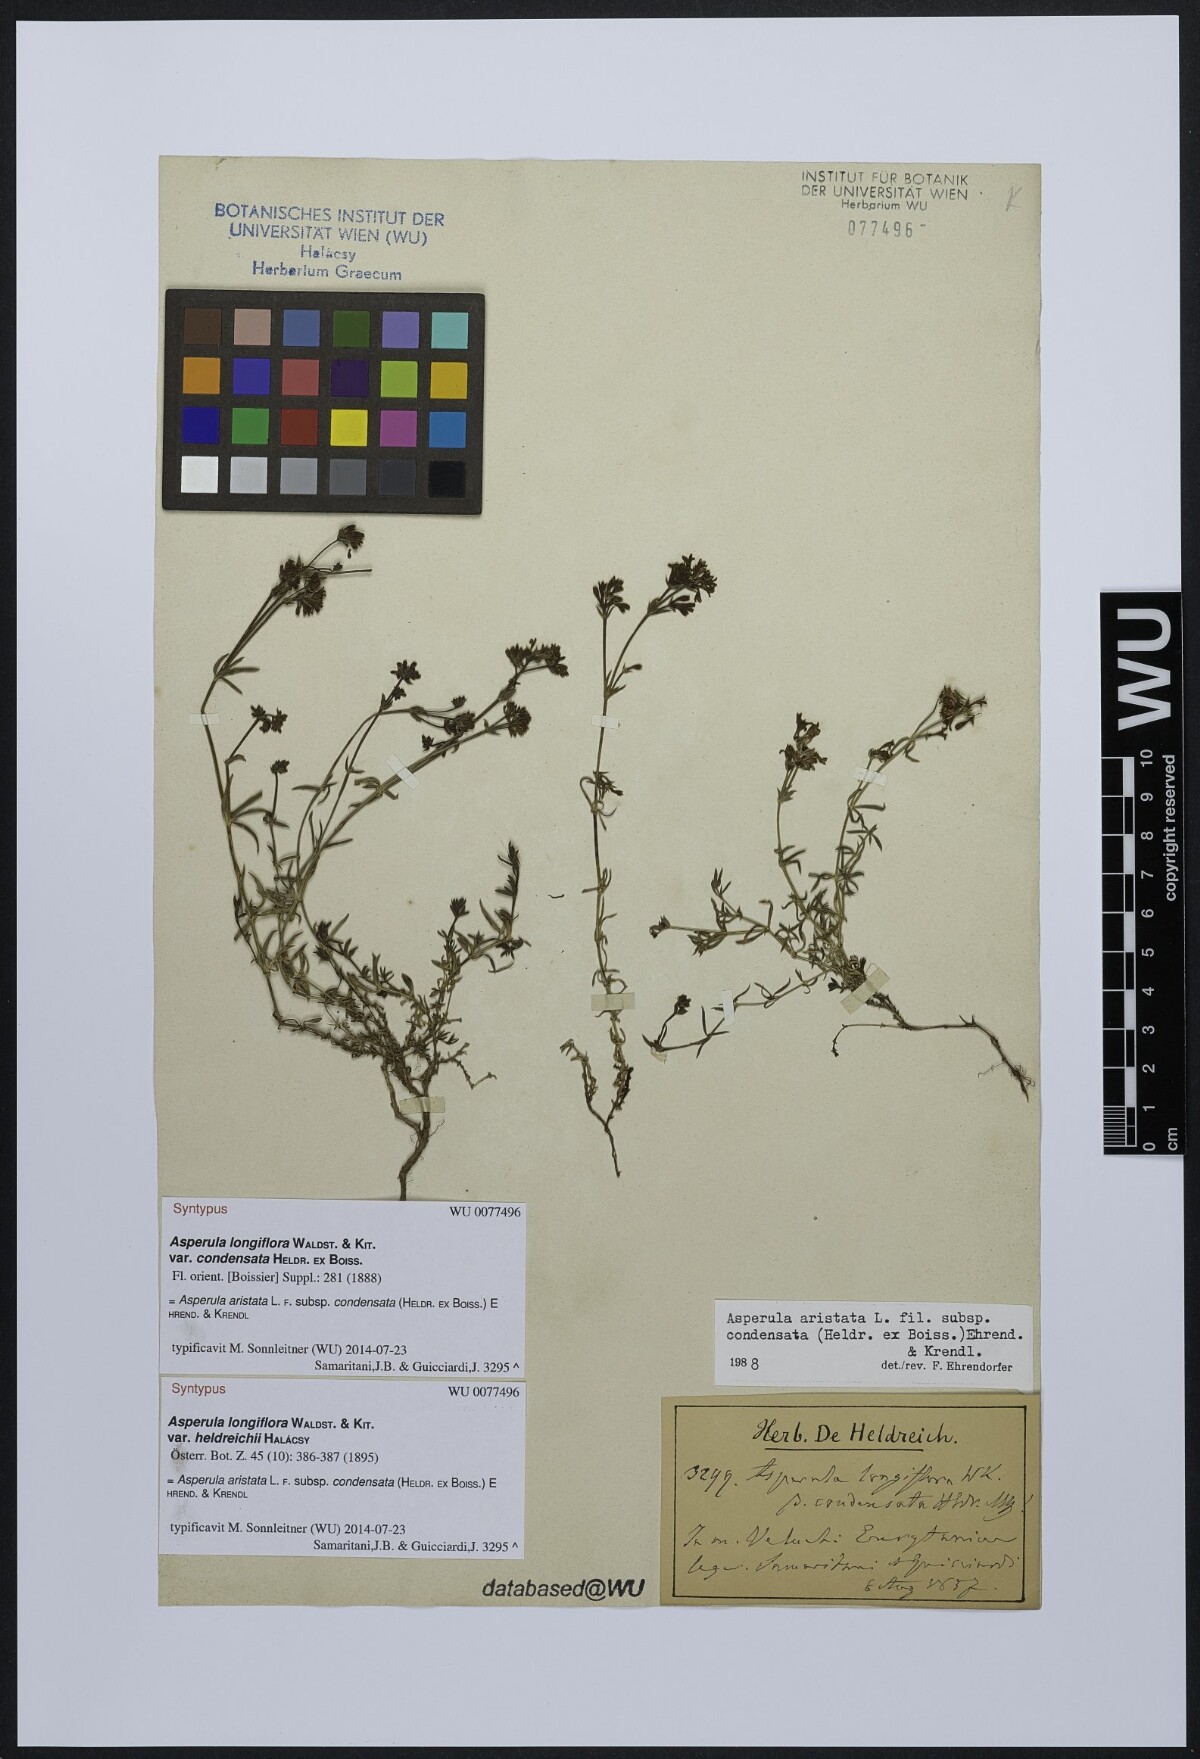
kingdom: Plantae
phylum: Tracheophyta
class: Magnoliopsida
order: Gentianales
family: Rubiaceae
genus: Cynanchica
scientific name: Cynanchica aristata
